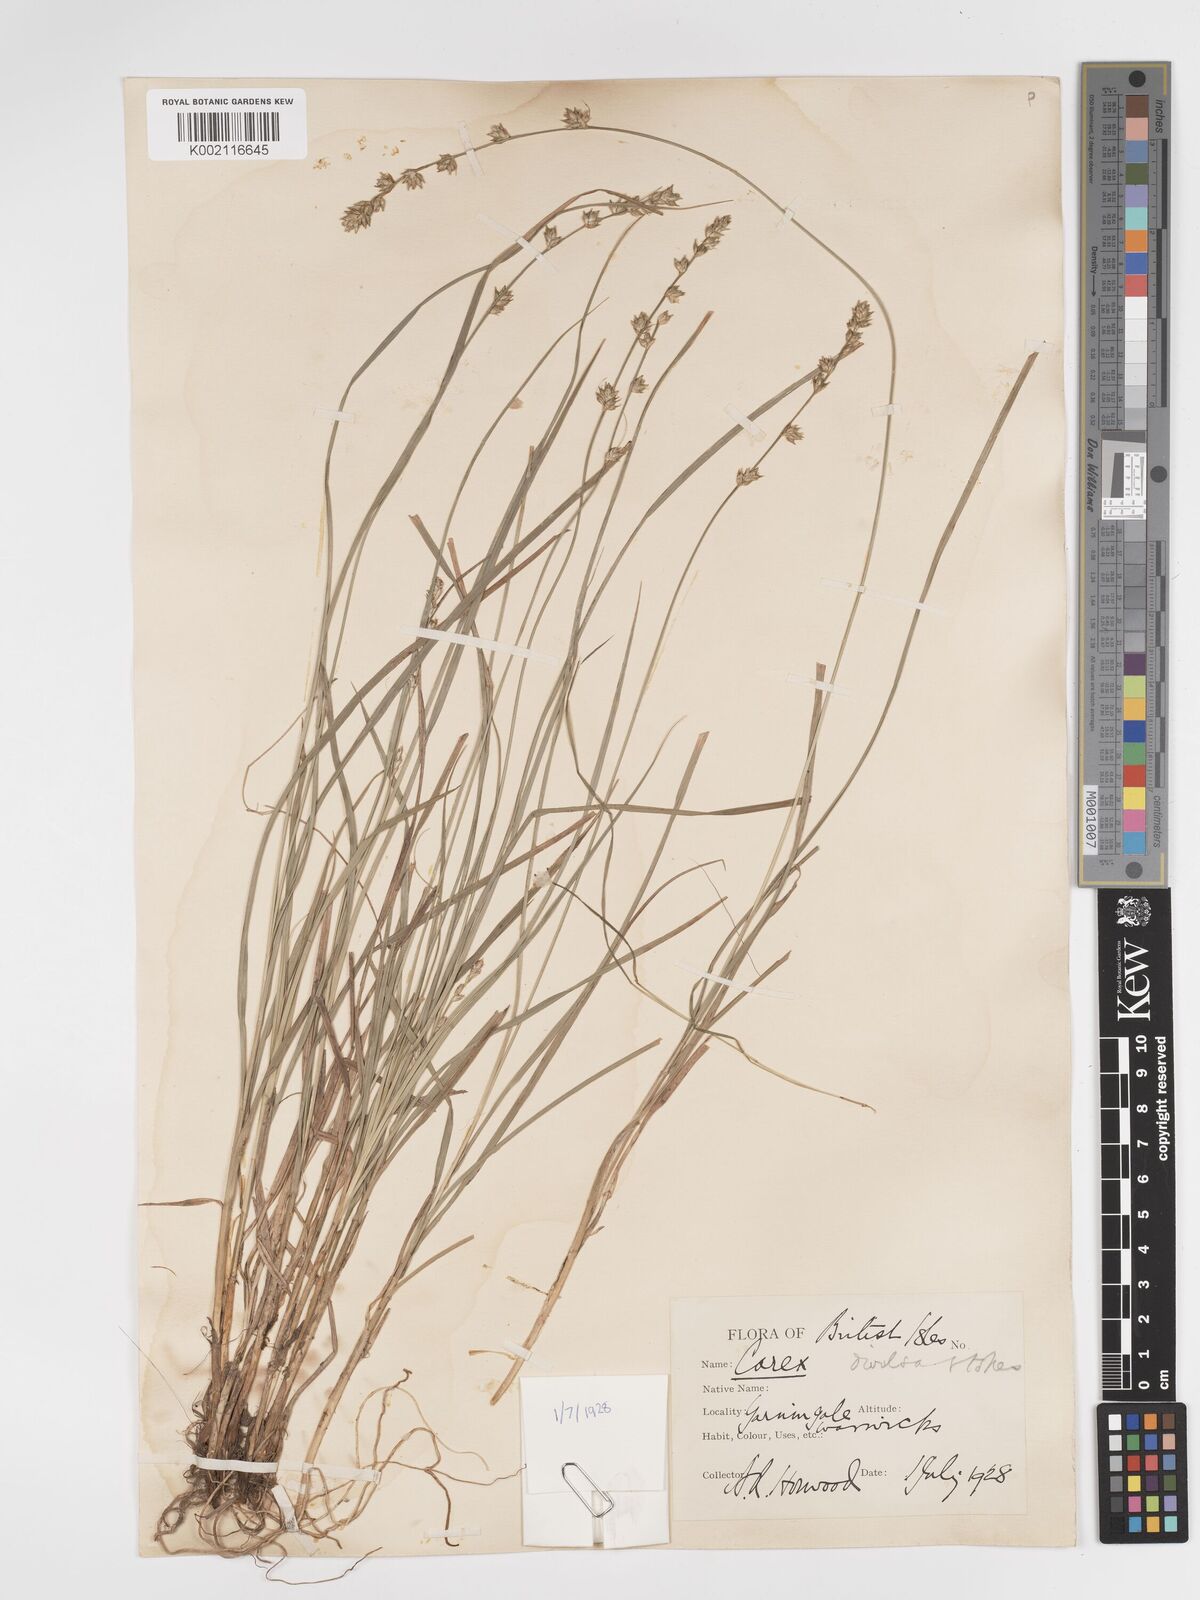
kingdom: Plantae
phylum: Tracheophyta
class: Liliopsida
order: Poales
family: Cyperaceae
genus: Carex
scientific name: Carex divulsa
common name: Grassland sedge
